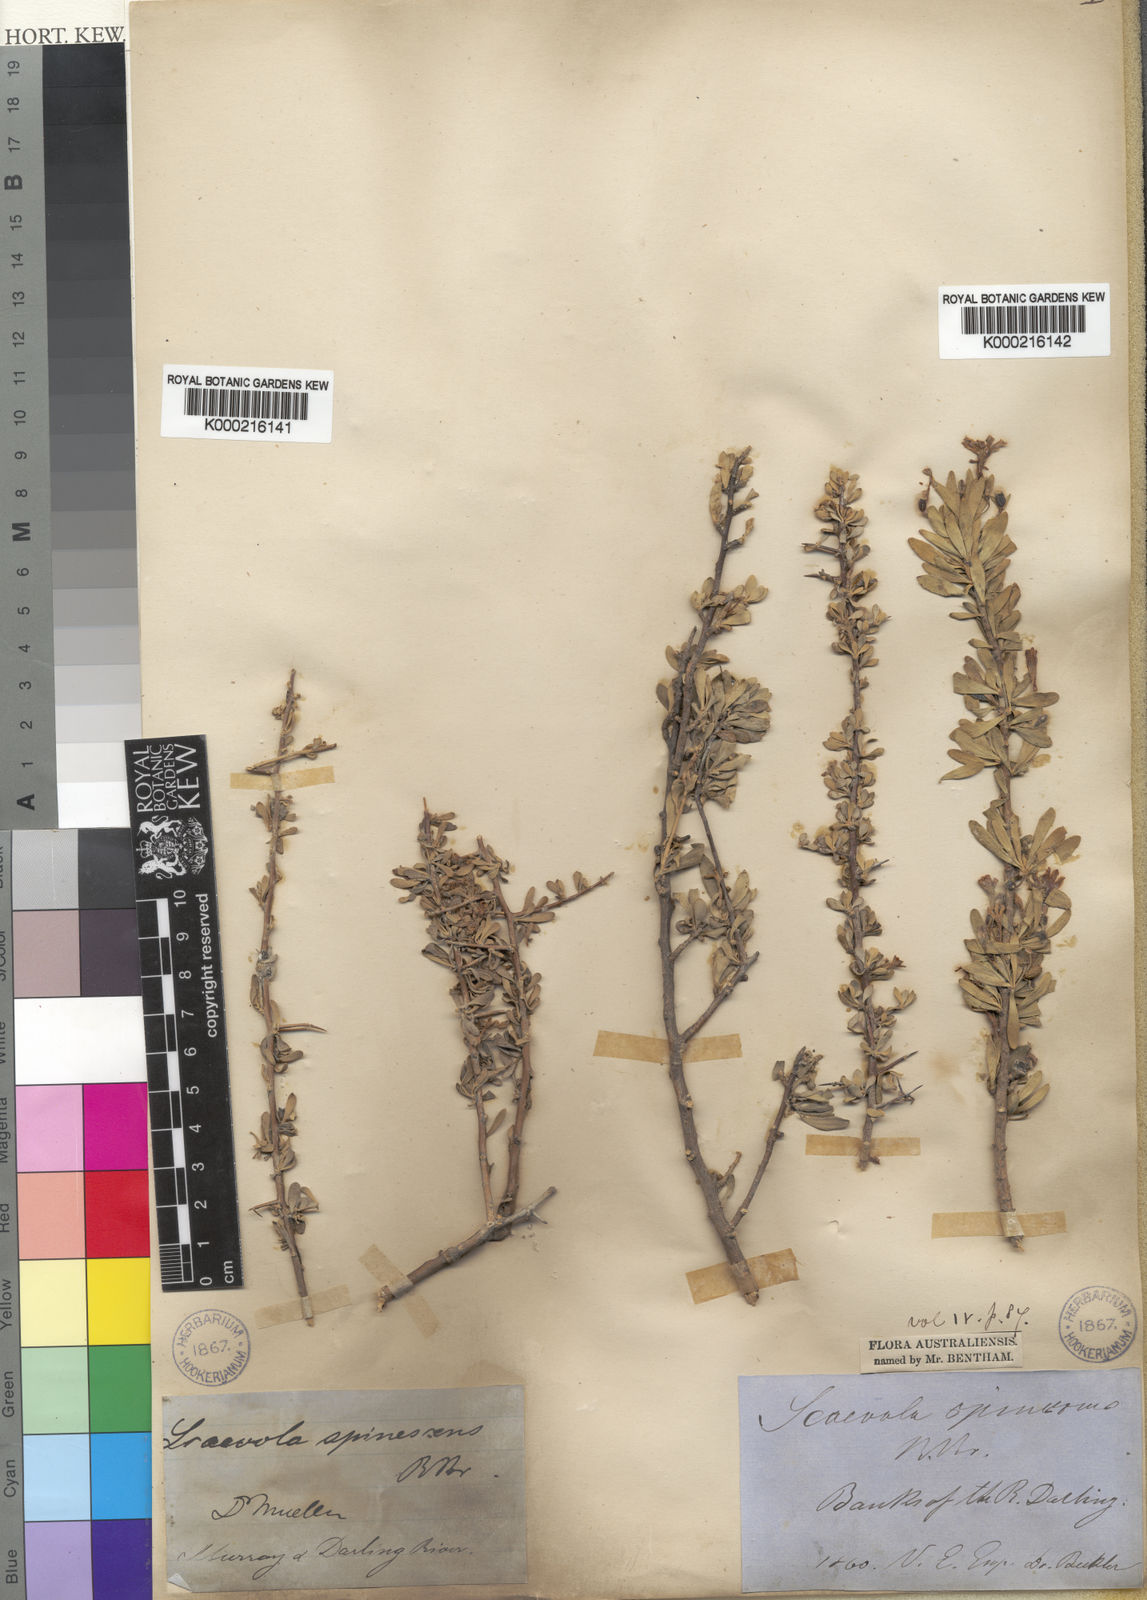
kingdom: Plantae
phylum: Tracheophyta
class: Magnoliopsida
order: Asterales
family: Goodeniaceae
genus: Scaevola
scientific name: Scaevola spinescens
